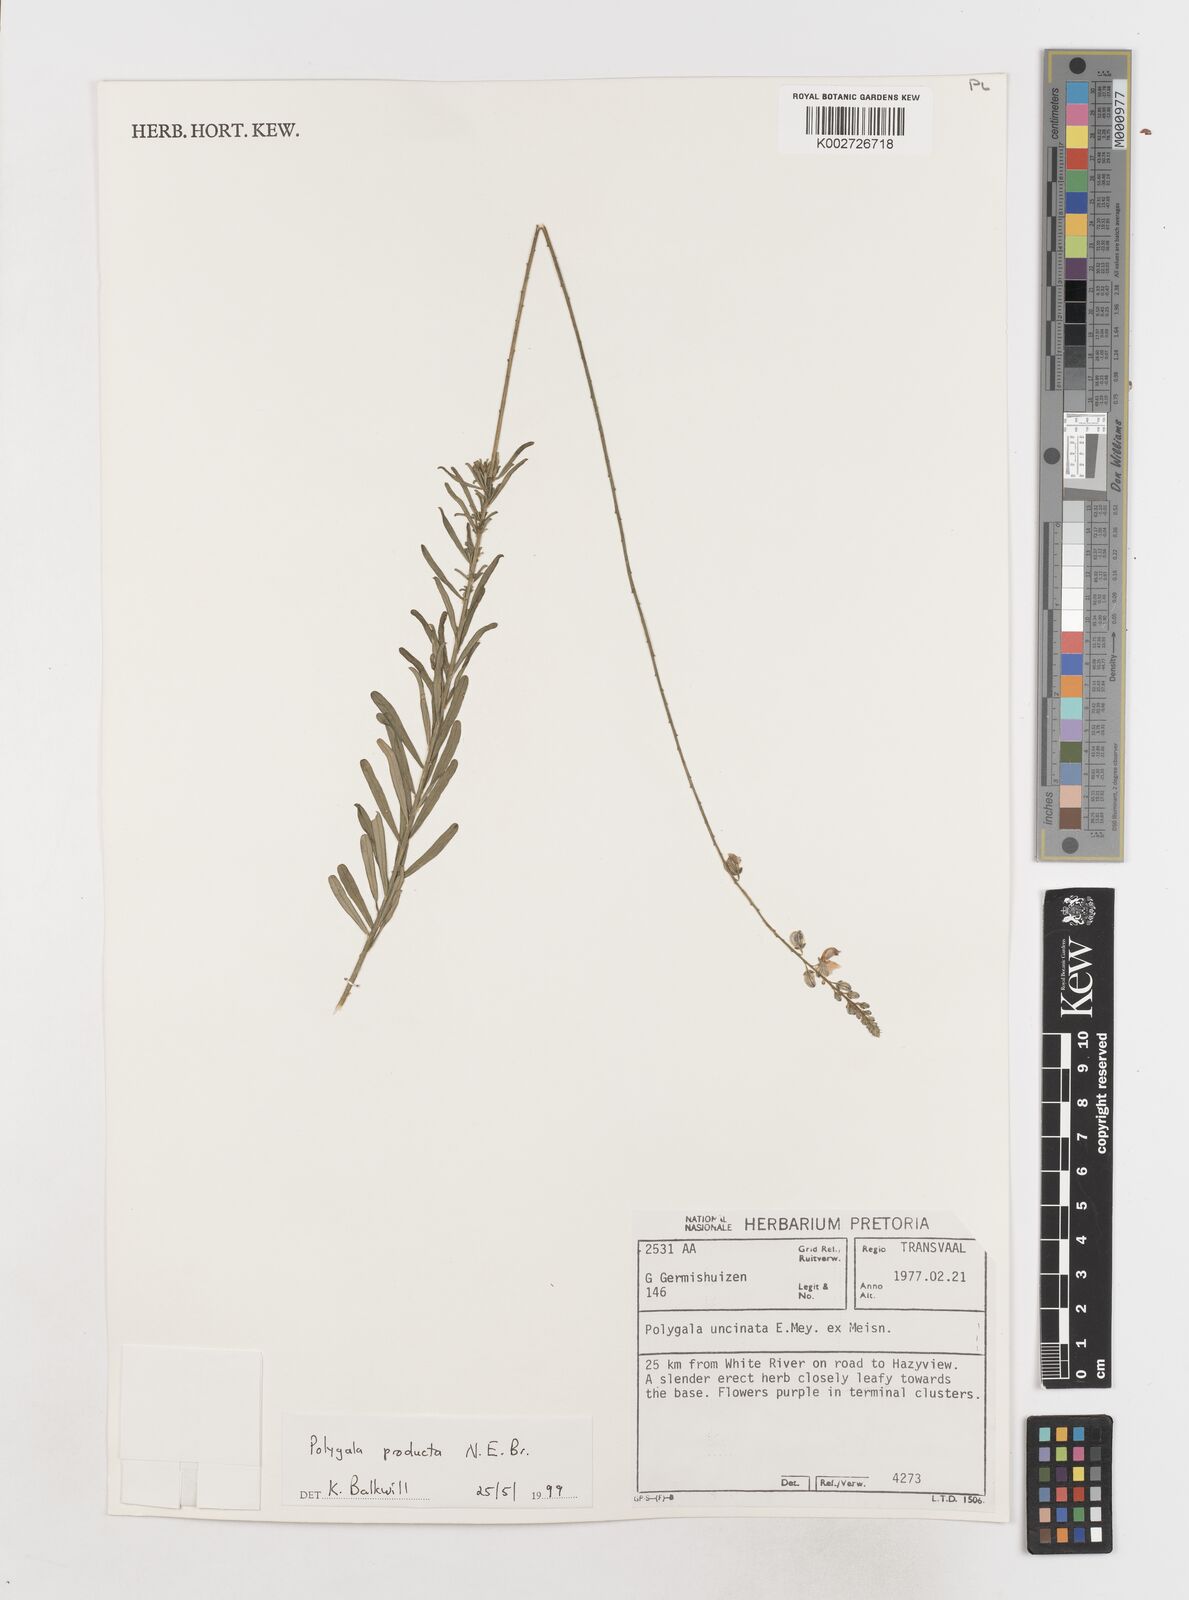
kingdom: Plantae
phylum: Tracheophyta
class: Magnoliopsida
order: Fabales
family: Polygalaceae
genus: Polygala
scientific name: Polygala producta
